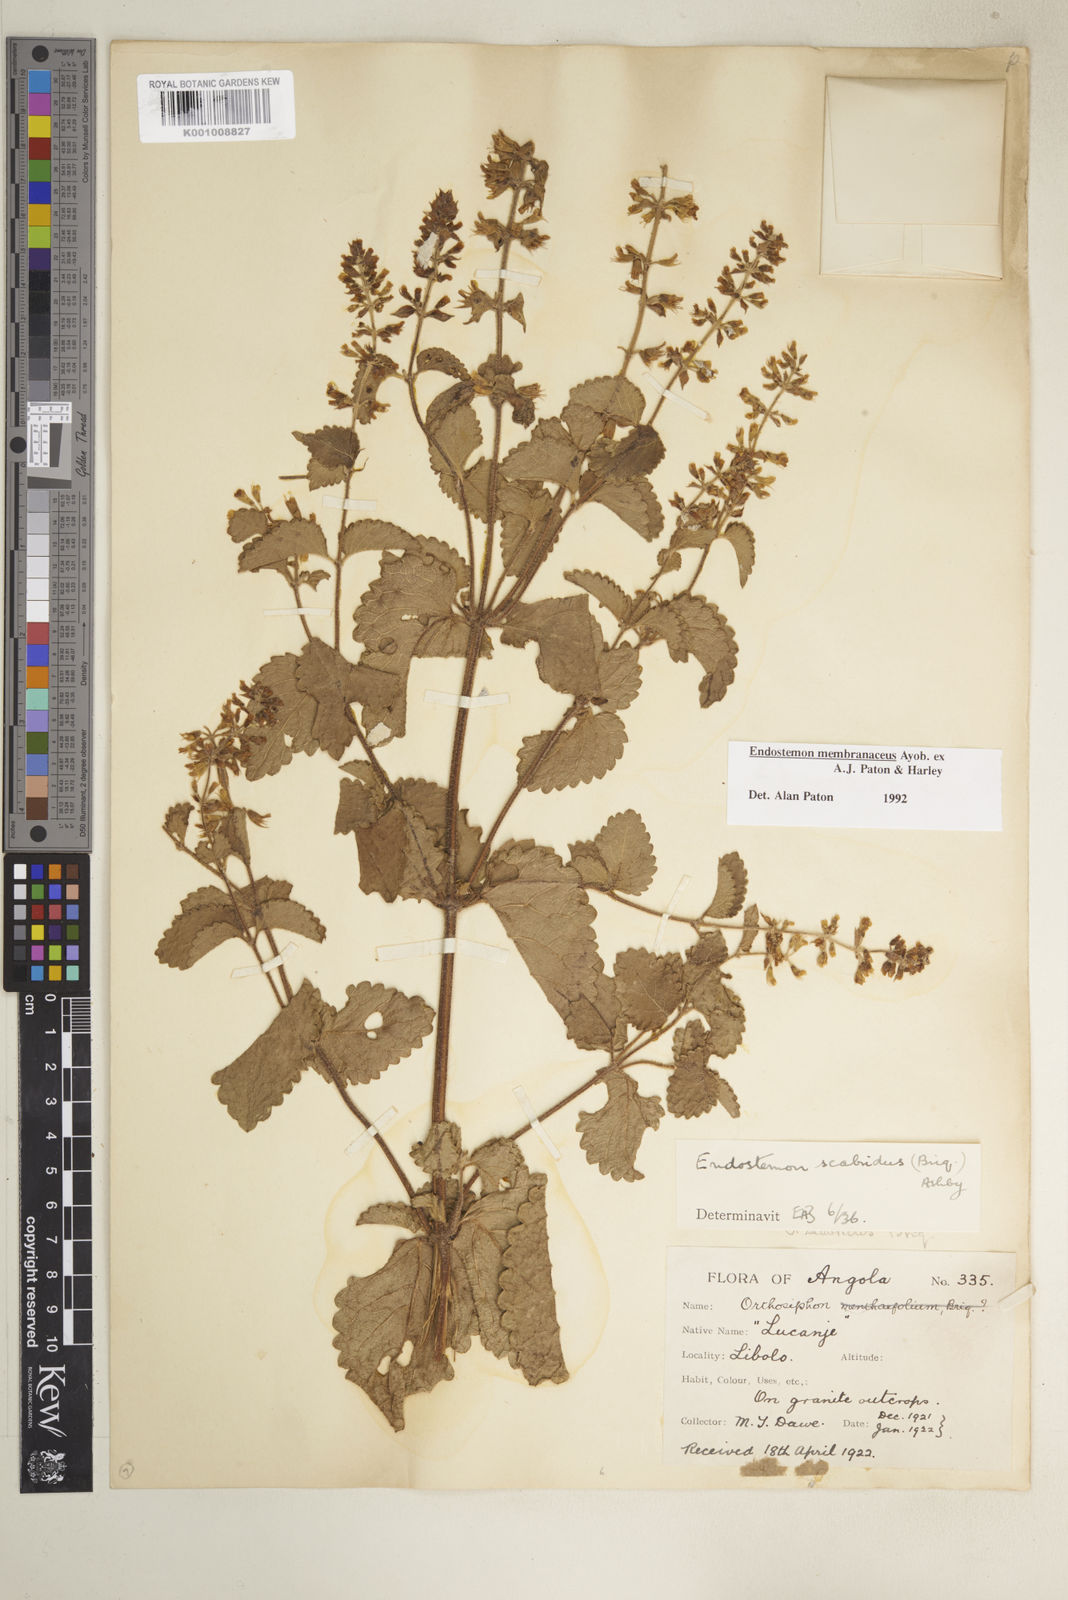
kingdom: Plantae
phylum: Tracheophyta
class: Magnoliopsida
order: Lamiales
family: Lamiaceae
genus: Endostemon
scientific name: Endostemon membranaceus
